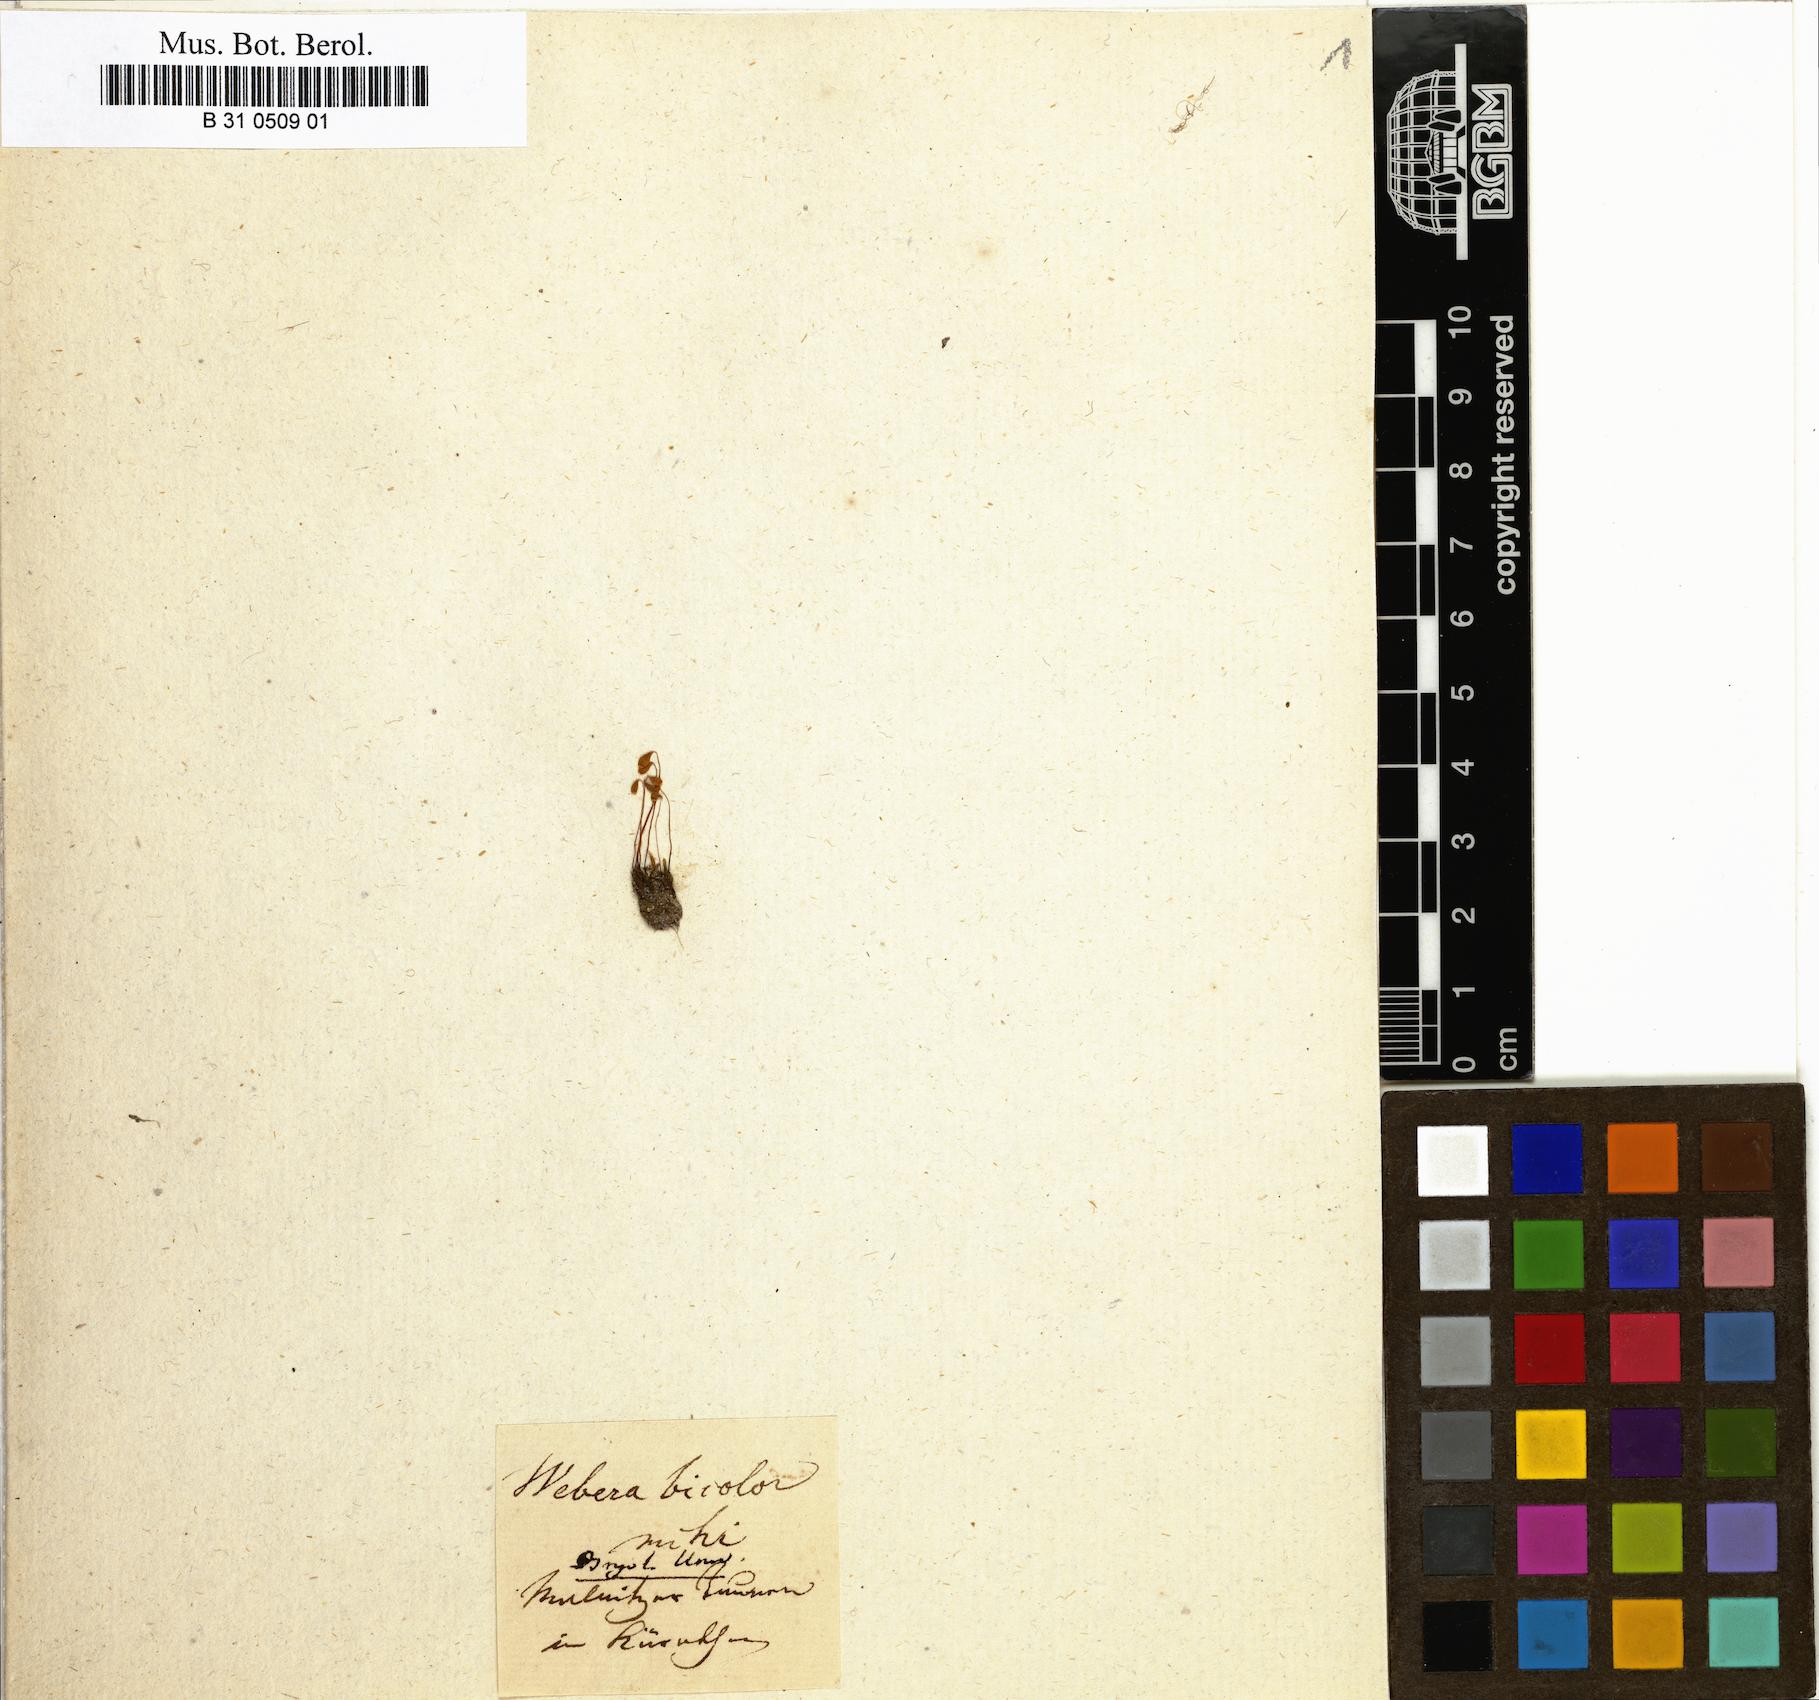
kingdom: Plantae
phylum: Bryophyta
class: Bryopsida
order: Bryales
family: Mniaceae
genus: Pohlia
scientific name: Pohlia nutans
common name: Nodding thread-moss
